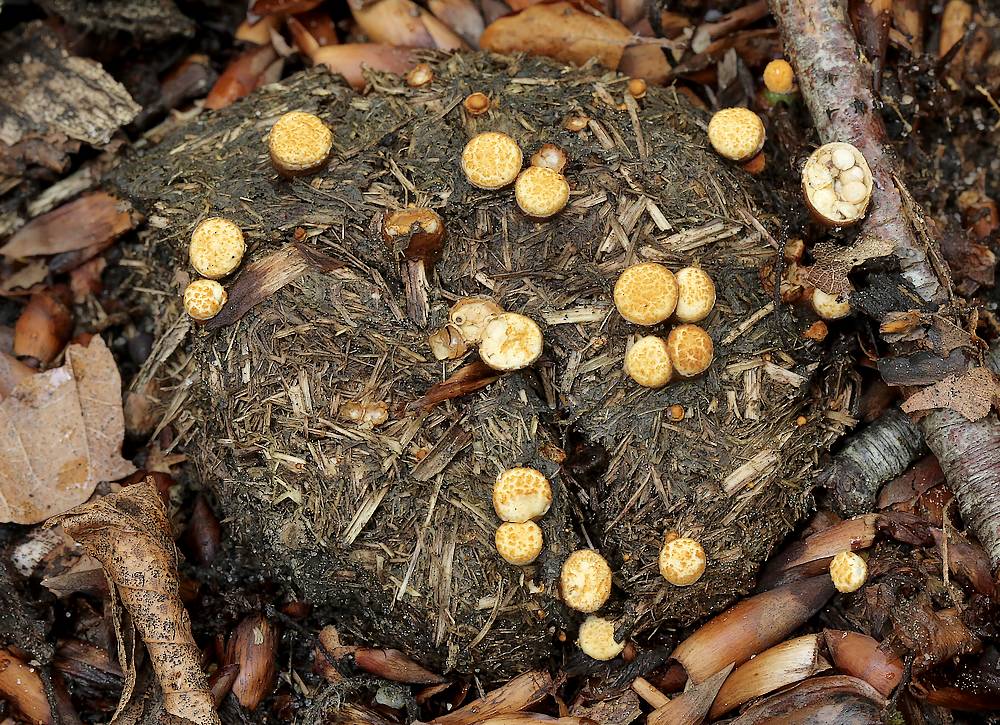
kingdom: Fungi
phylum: Basidiomycota
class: Agaricomycetes
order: Agaricales
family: Nidulariaceae
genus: Crucibulum
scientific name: Crucibulum crucibuliforme
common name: krukkesvamp
